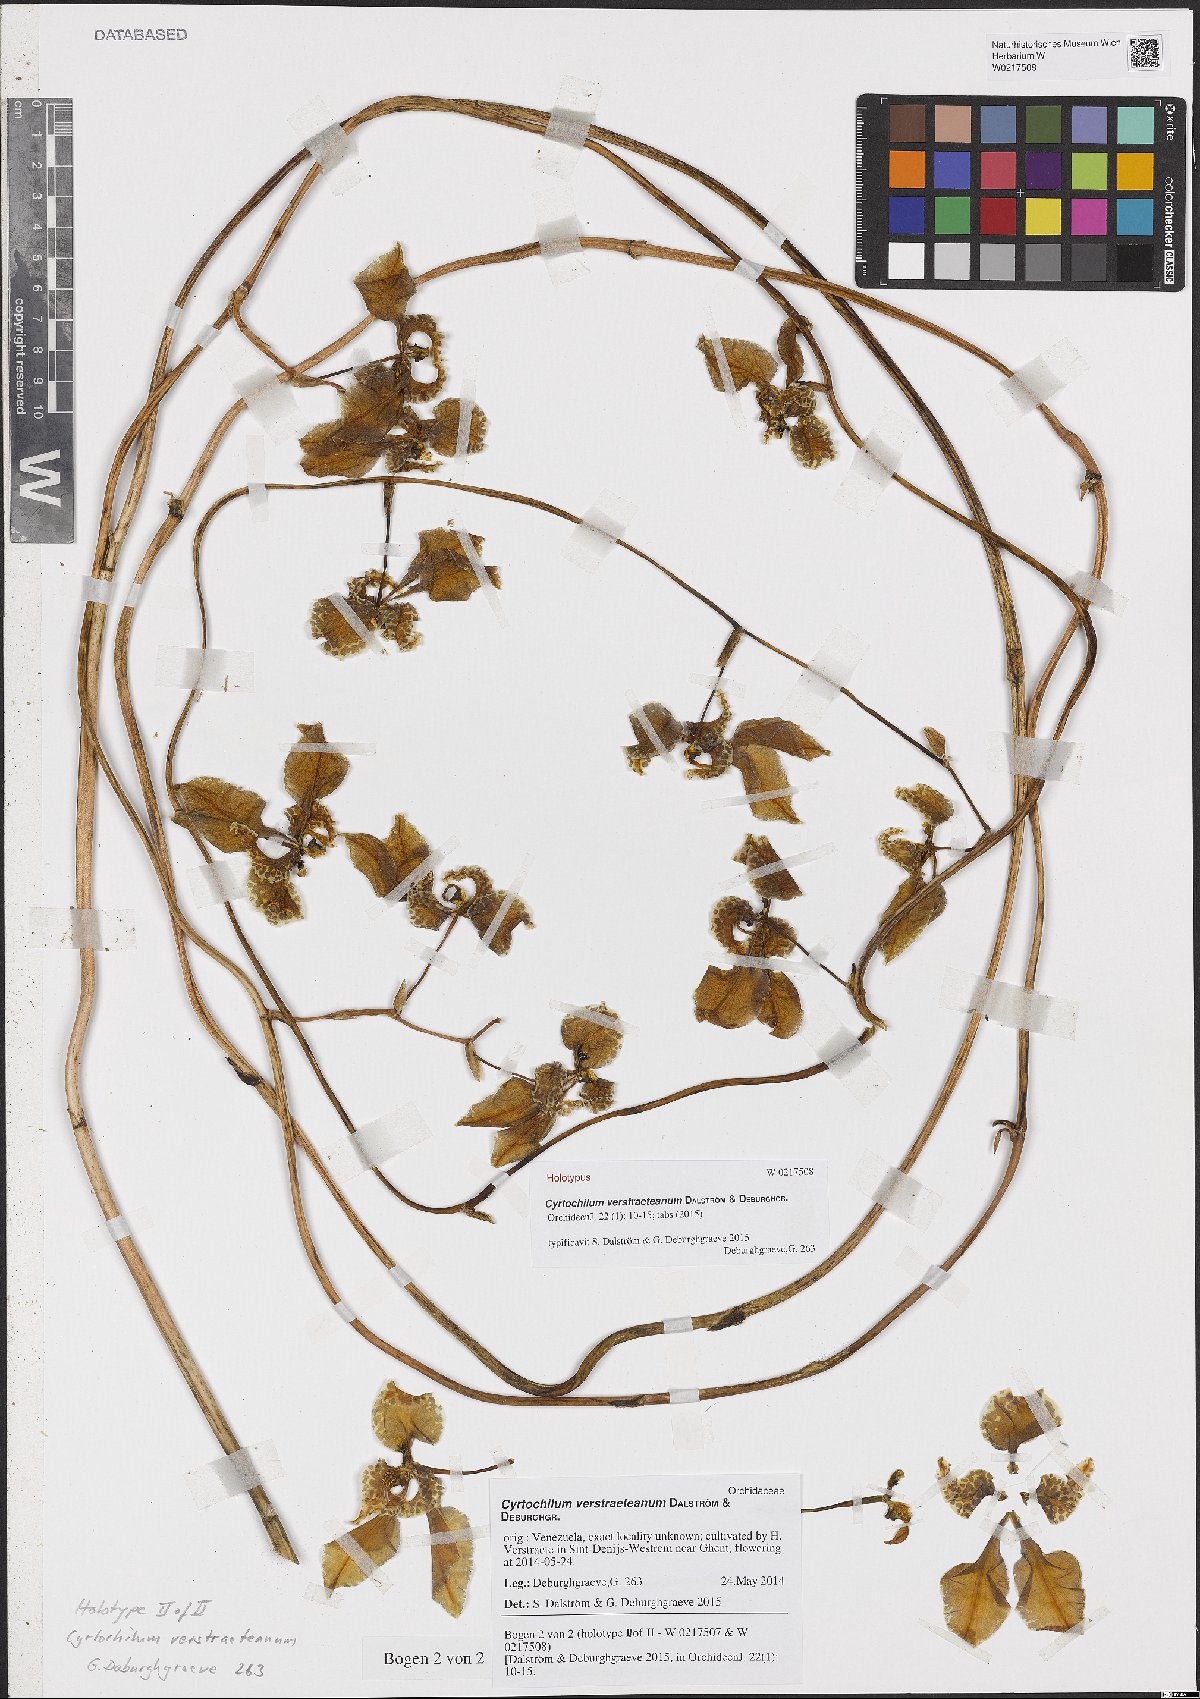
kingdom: Plantae
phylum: Tracheophyta
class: Liliopsida
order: Asparagales
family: Orchidaceae
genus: Cyrtochilum
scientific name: Cyrtochilum verstraeteanum
